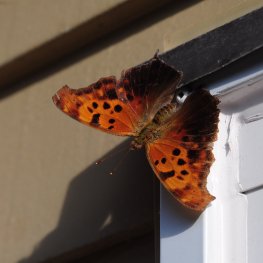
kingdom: Animalia
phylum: Arthropoda
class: Insecta
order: Lepidoptera
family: Nymphalidae
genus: Polygonia
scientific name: Polygonia interrogationis
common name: Question Mark
